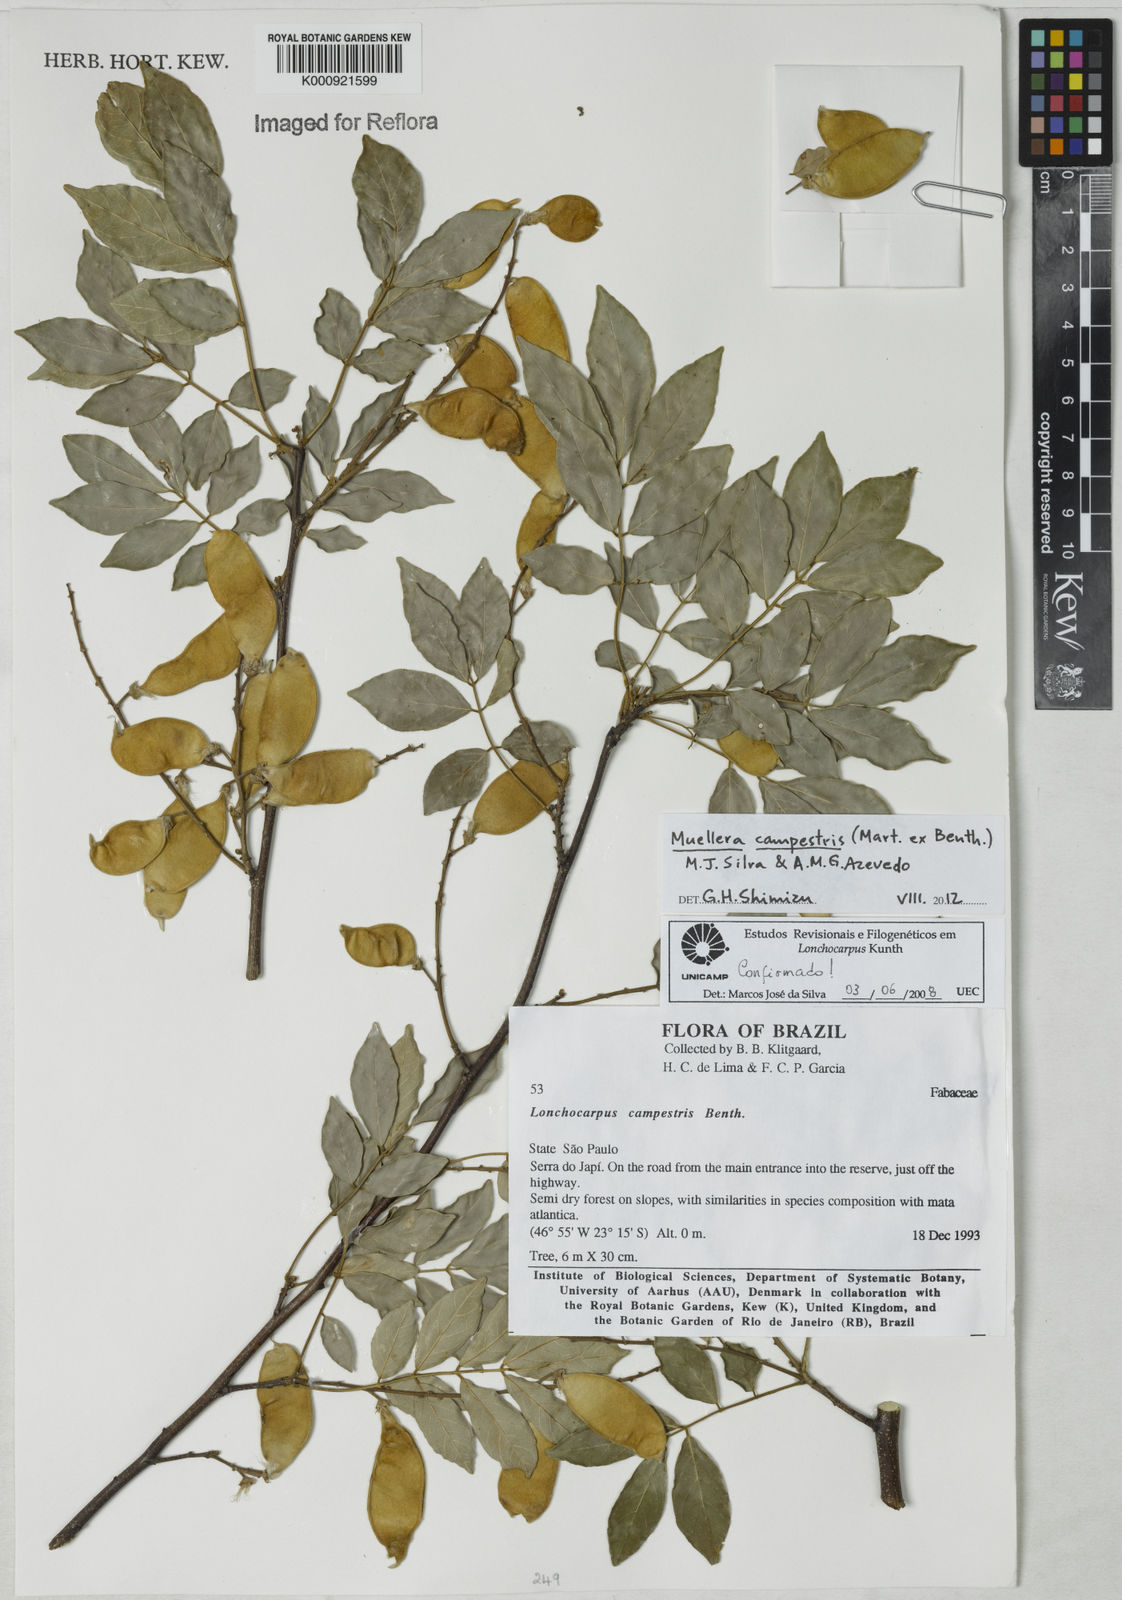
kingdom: Plantae
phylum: Tracheophyta
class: Magnoliopsida
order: Fabales
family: Fabaceae
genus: Muellera
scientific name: Muellera campestris
